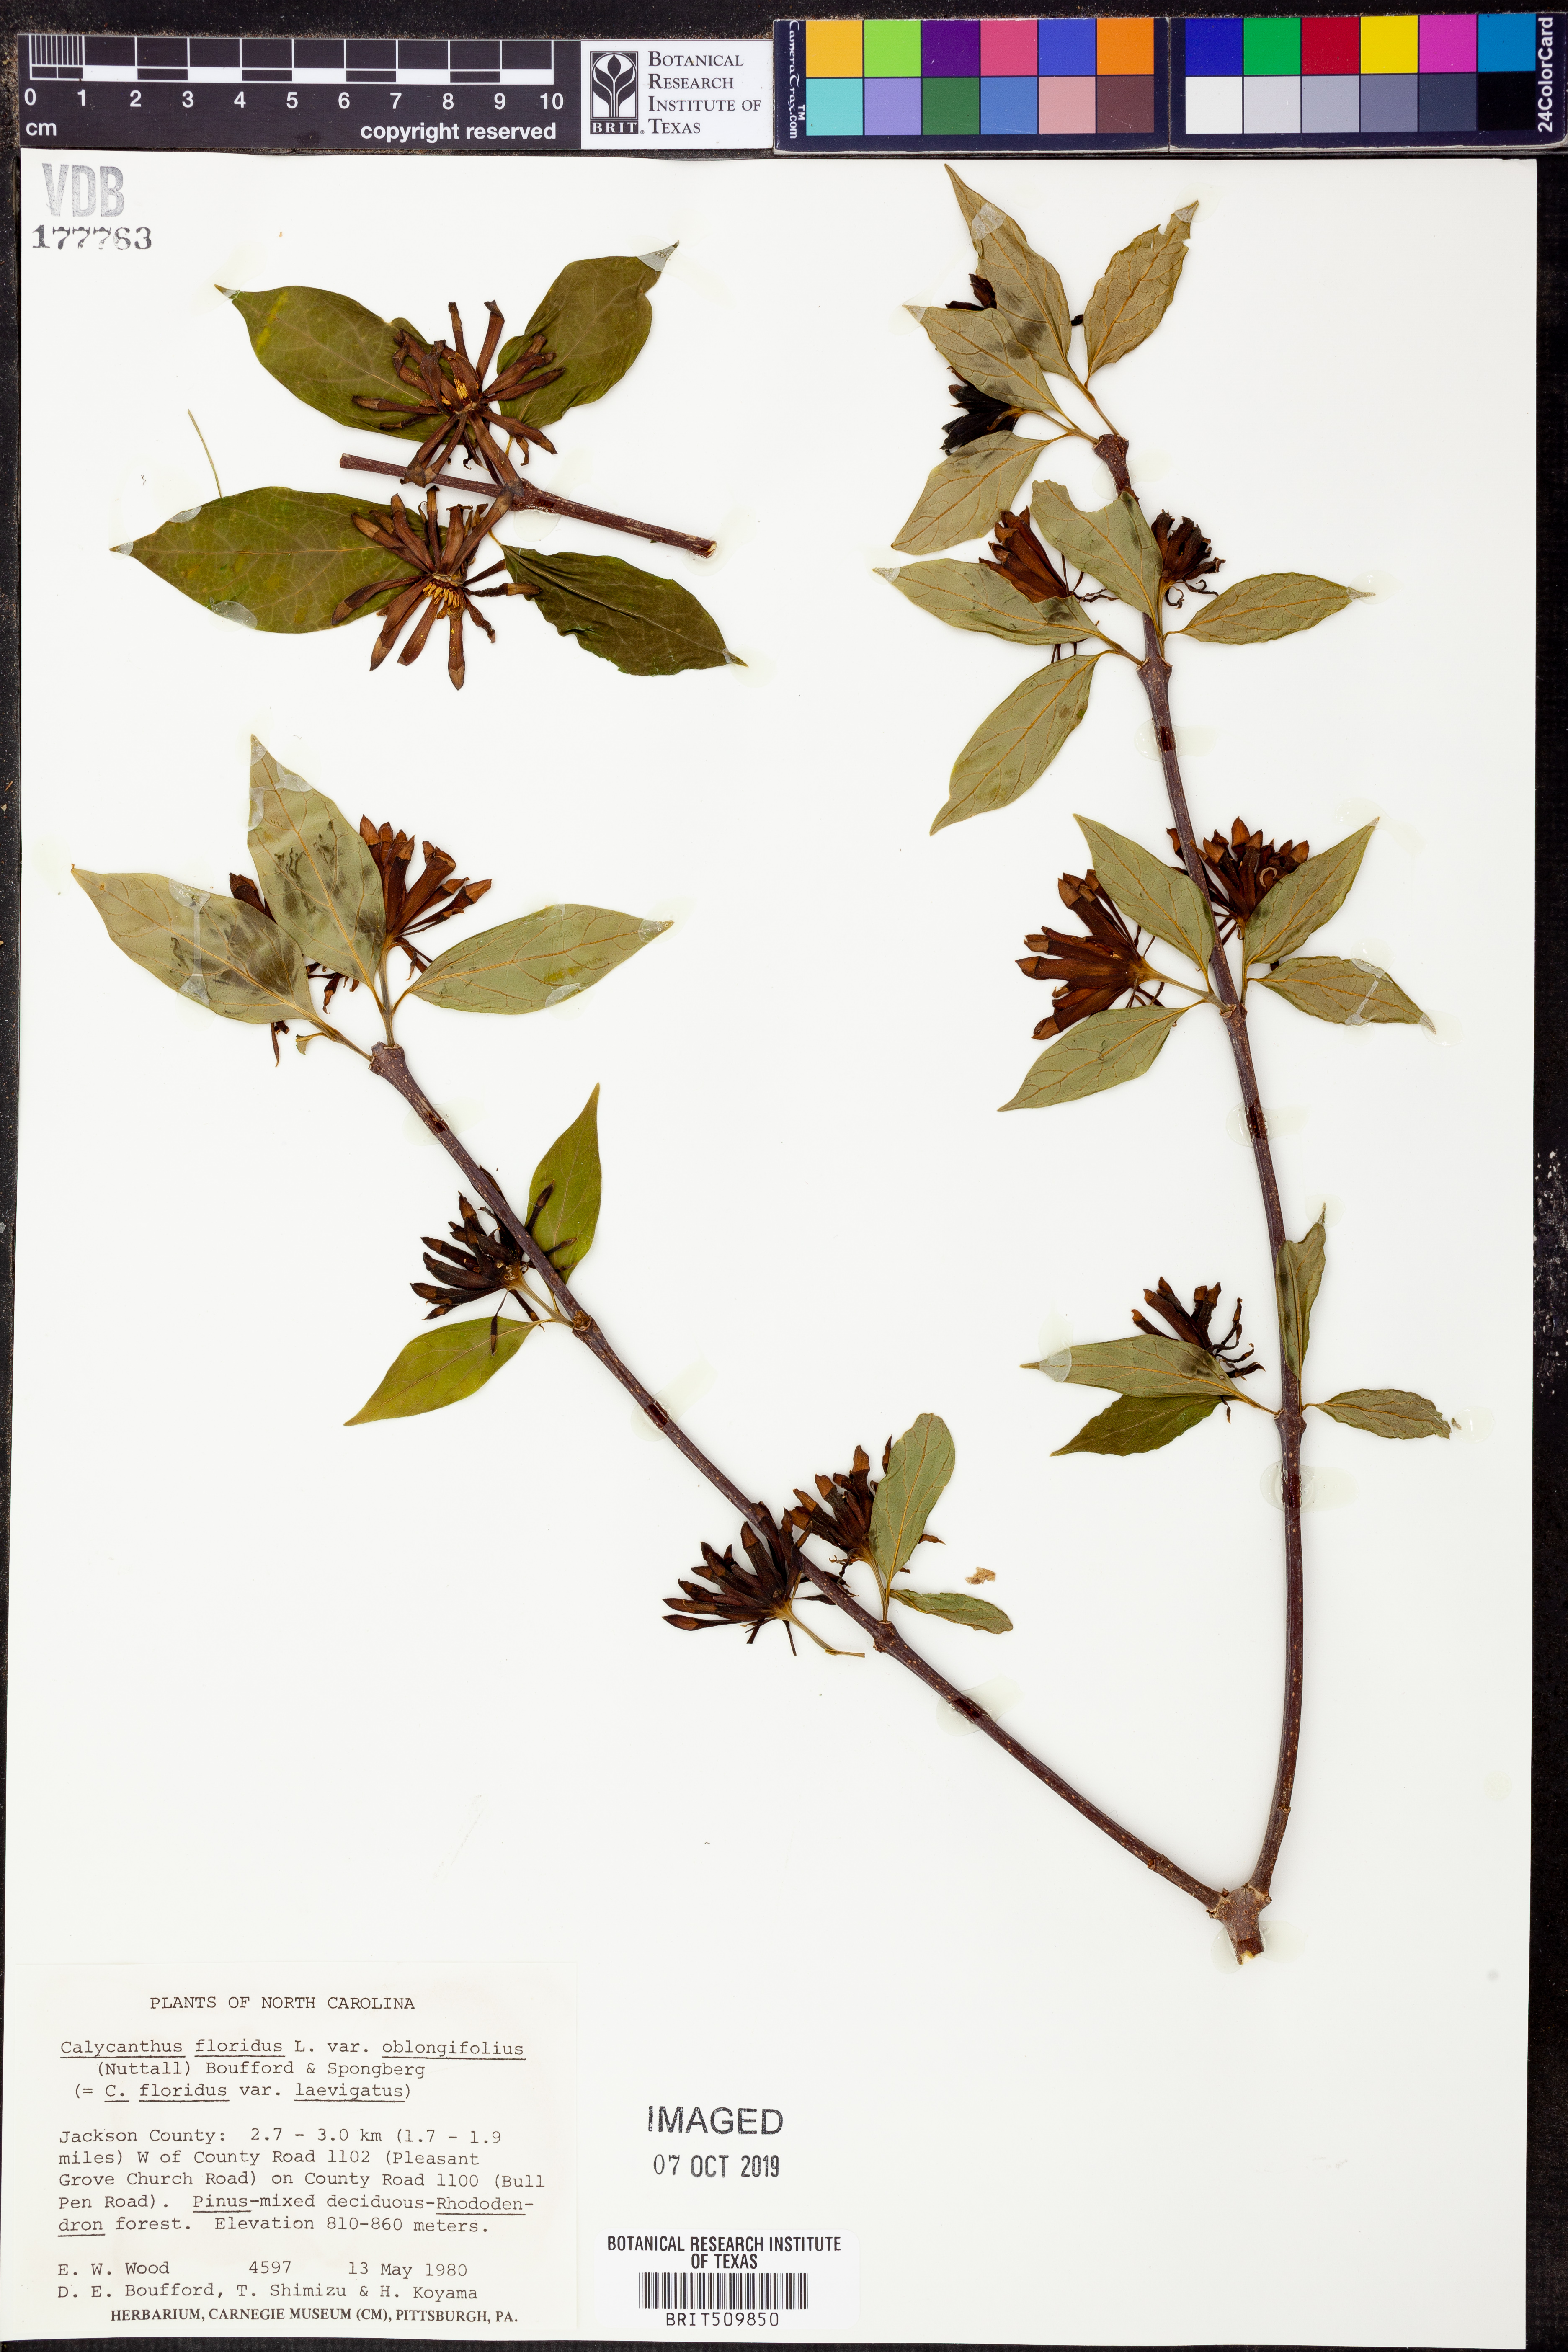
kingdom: Plantae
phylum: Tracheophyta
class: Magnoliopsida
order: Laurales
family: Calycanthaceae
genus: Calycanthus
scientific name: Calycanthus floridus
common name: Carolina-allspice
